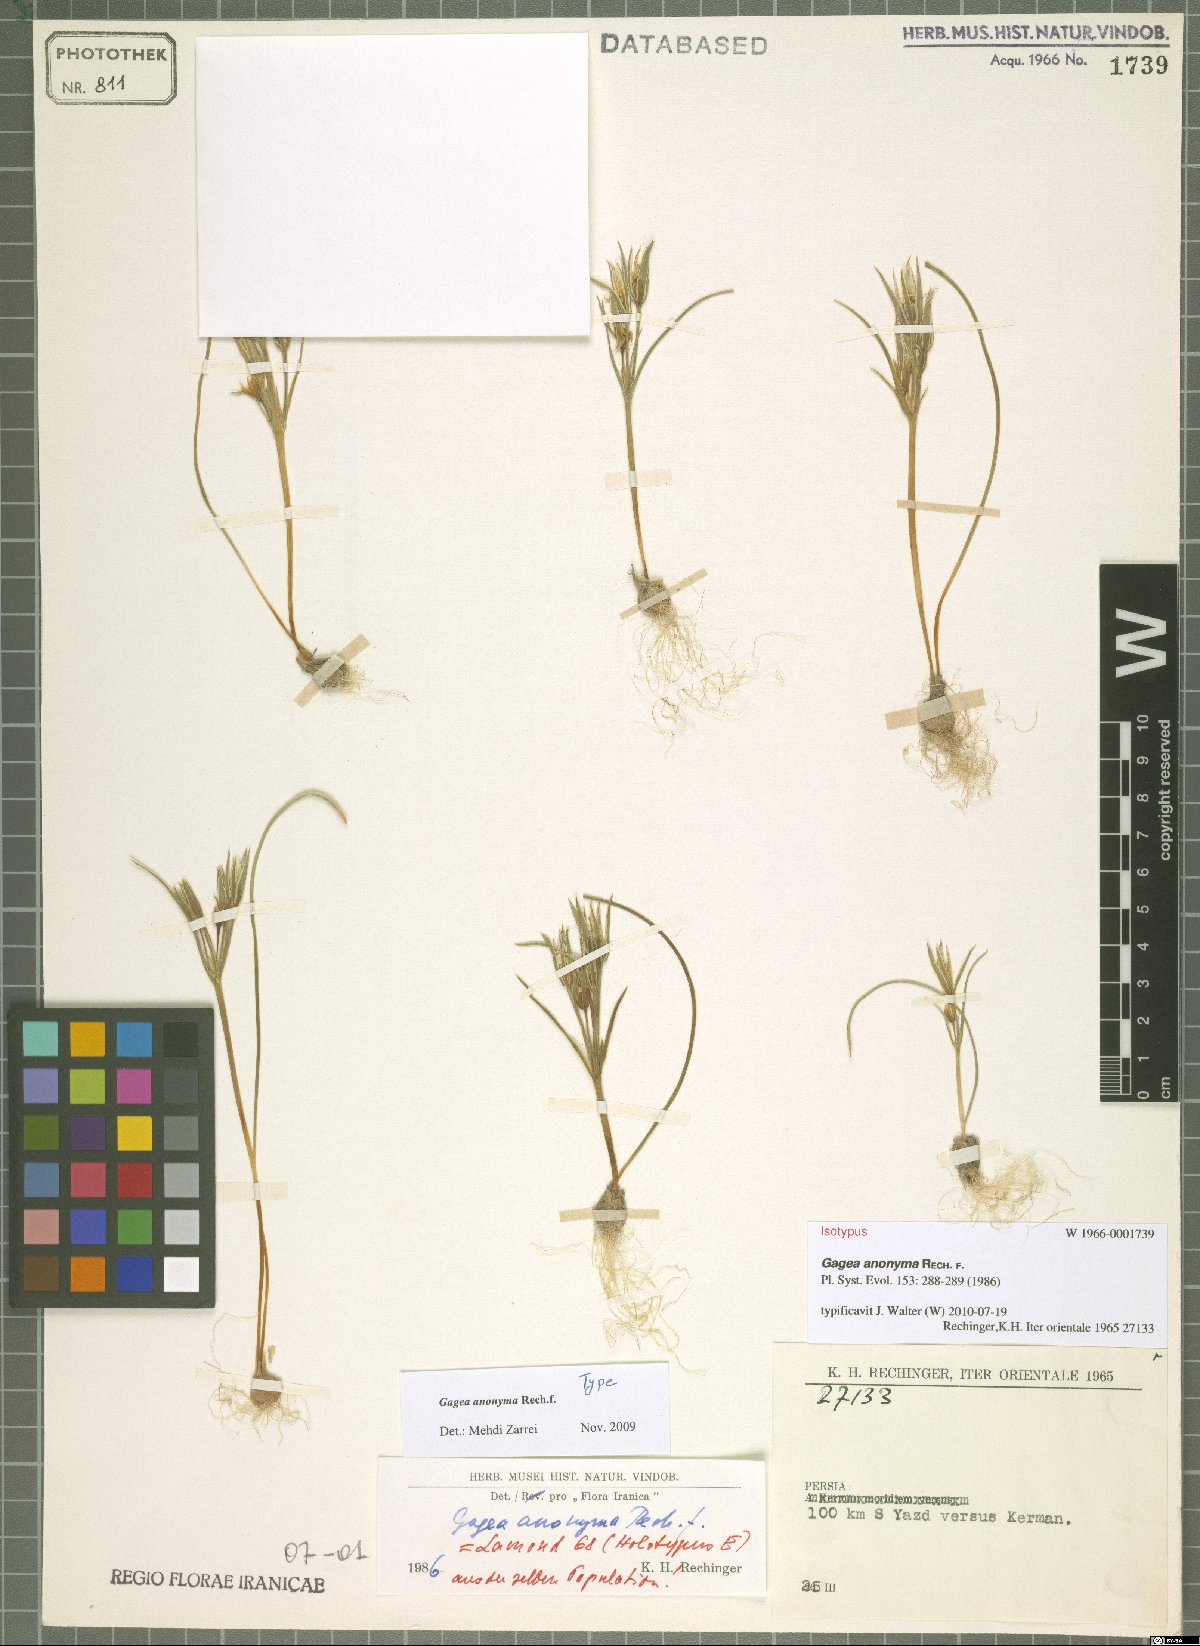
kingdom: Plantae
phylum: Tracheophyta
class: Liliopsida
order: Liliales
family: Liliaceae
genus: Gagea
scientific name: Gagea setifolia
